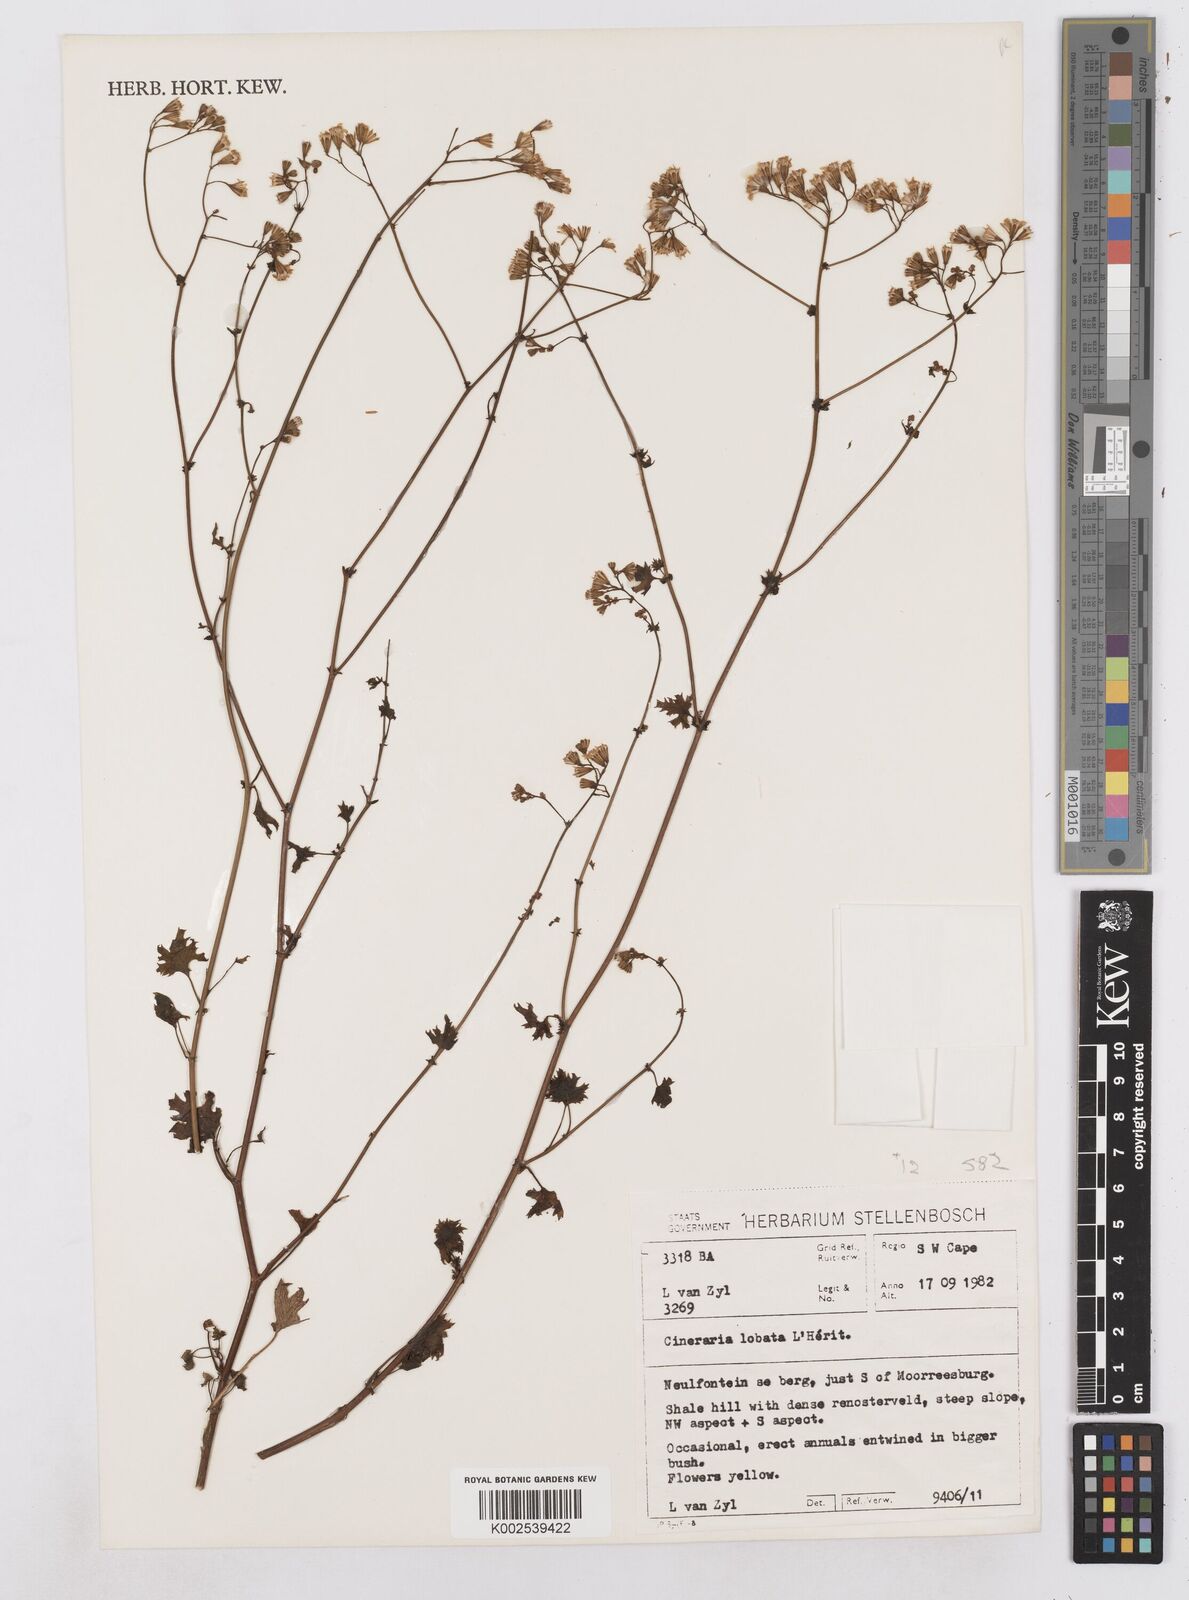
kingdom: Plantae
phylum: Tracheophyta
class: Magnoliopsida
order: Asterales
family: Asteraceae
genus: Cineraria
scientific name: Cineraria
